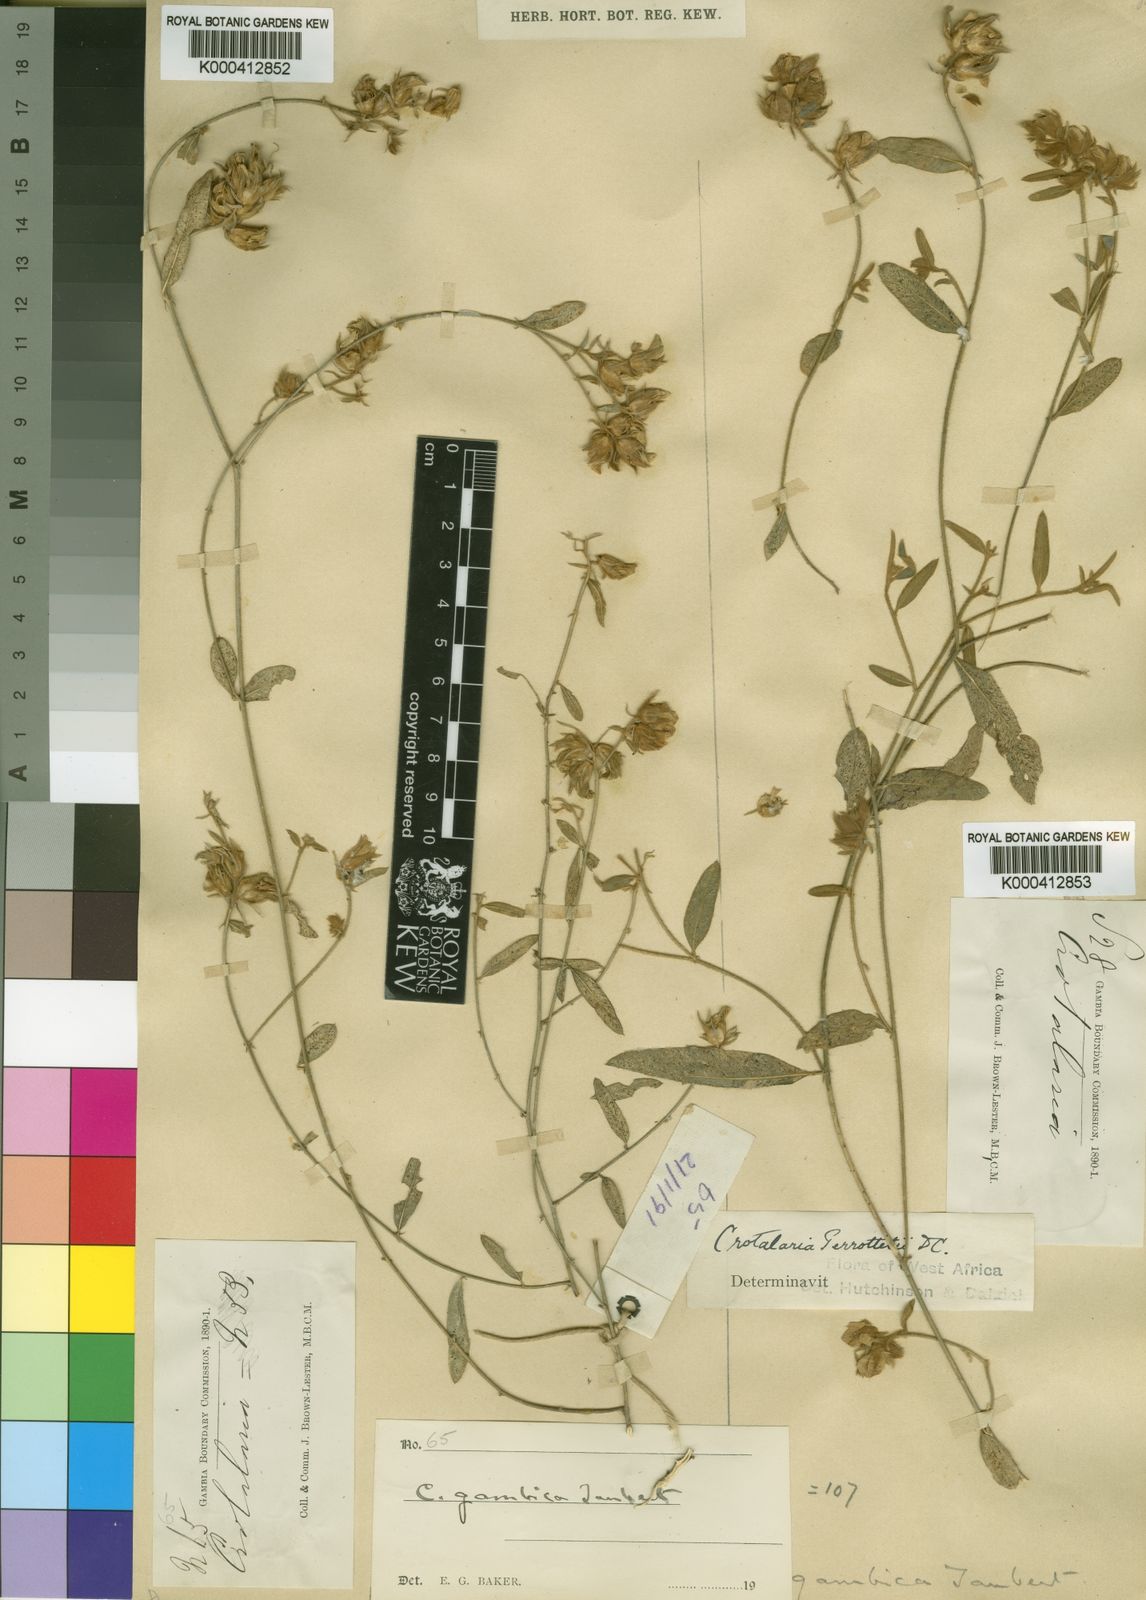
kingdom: Plantae
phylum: Tracheophyta
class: Magnoliopsida
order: Fabales
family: Fabaceae
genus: Crotalaria
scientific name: Crotalaria perrottetii
